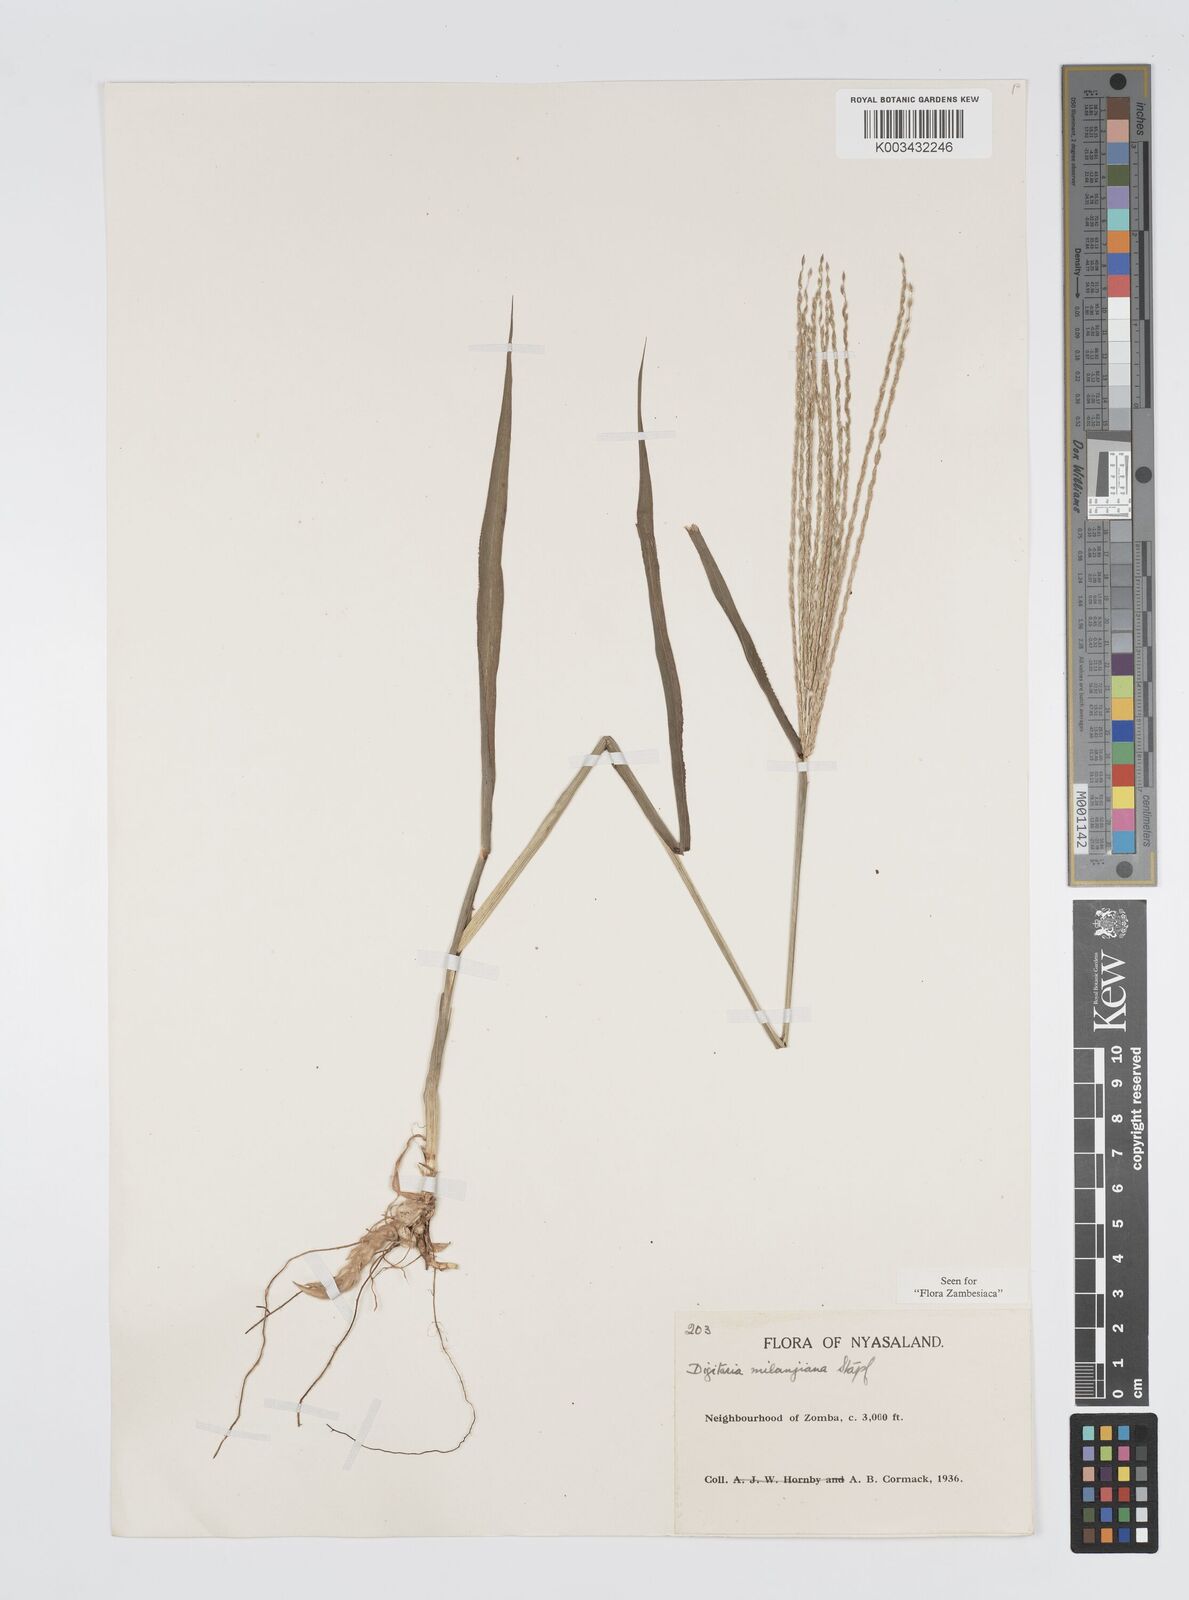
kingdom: Plantae
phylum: Tracheophyta
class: Liliopsida
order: Poales
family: Poaceae
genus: Digitaria
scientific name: Digitaria milanjiana
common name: Madagascar crabgrass
